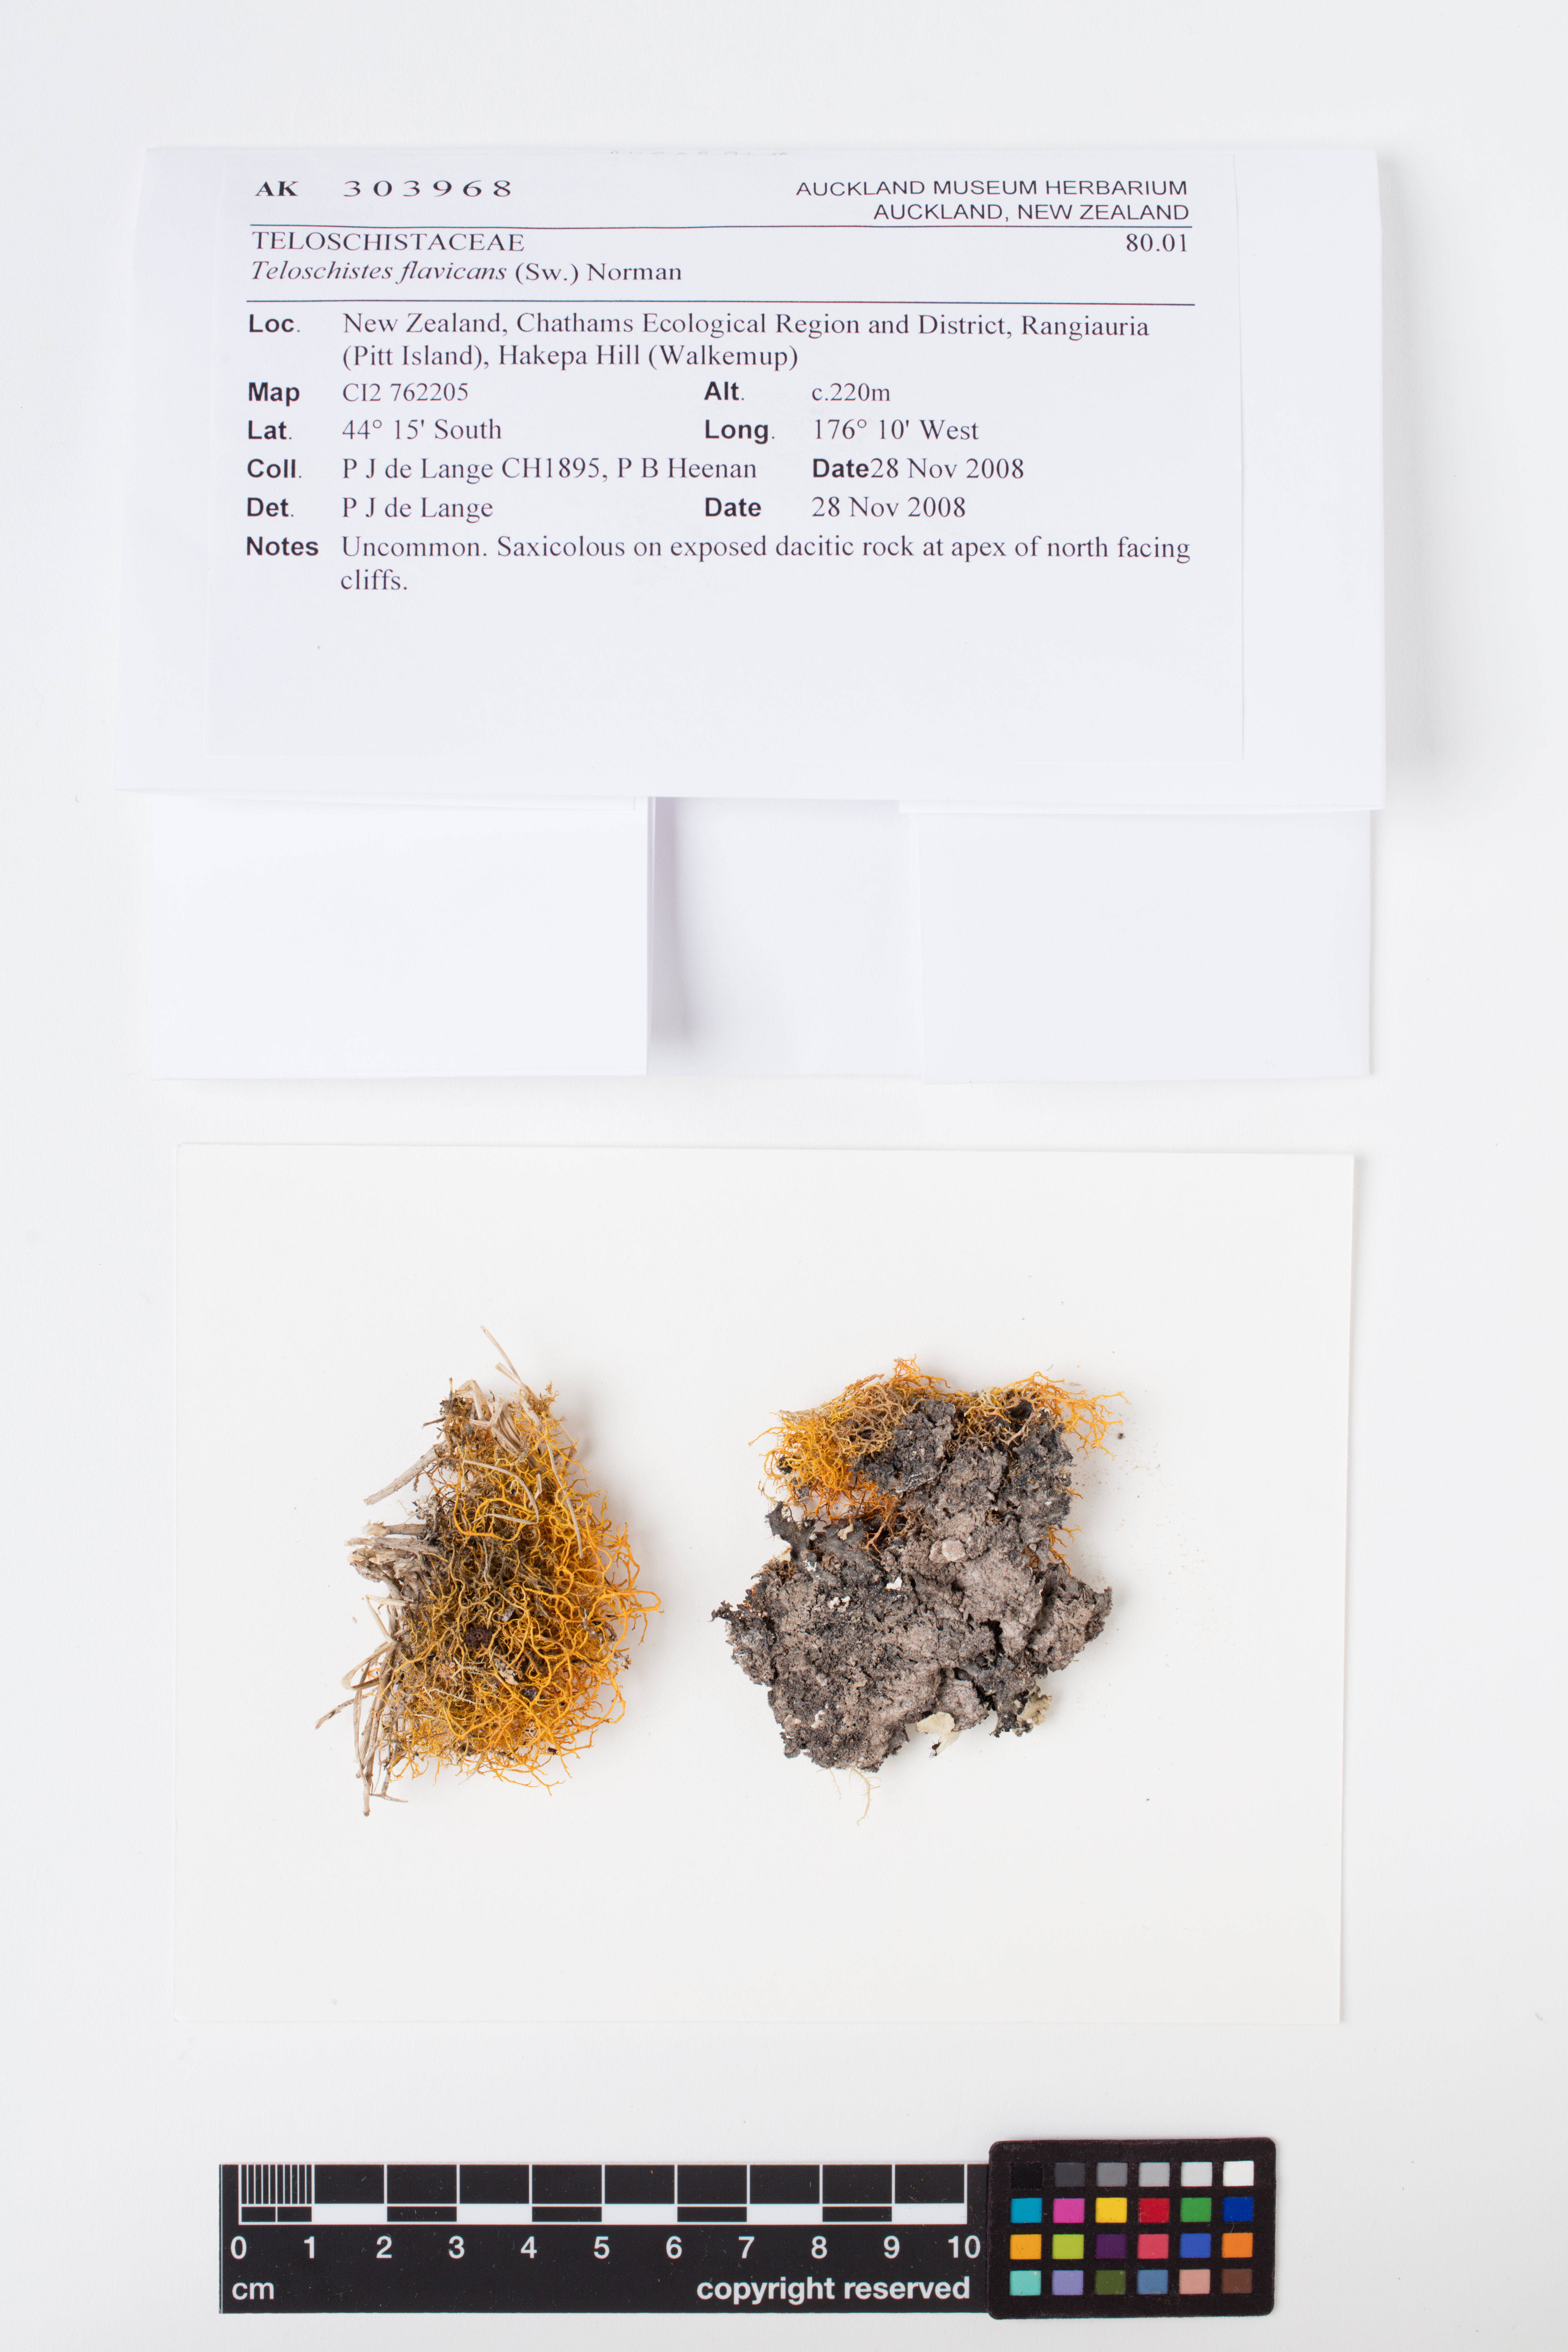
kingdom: Fungi
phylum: Ascomycota
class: Lecanoromycetes
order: Teloschistales
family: Teloschistaceae
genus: Teloschistes
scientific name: Teloschistes flavicans
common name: Golden hair-lichen
